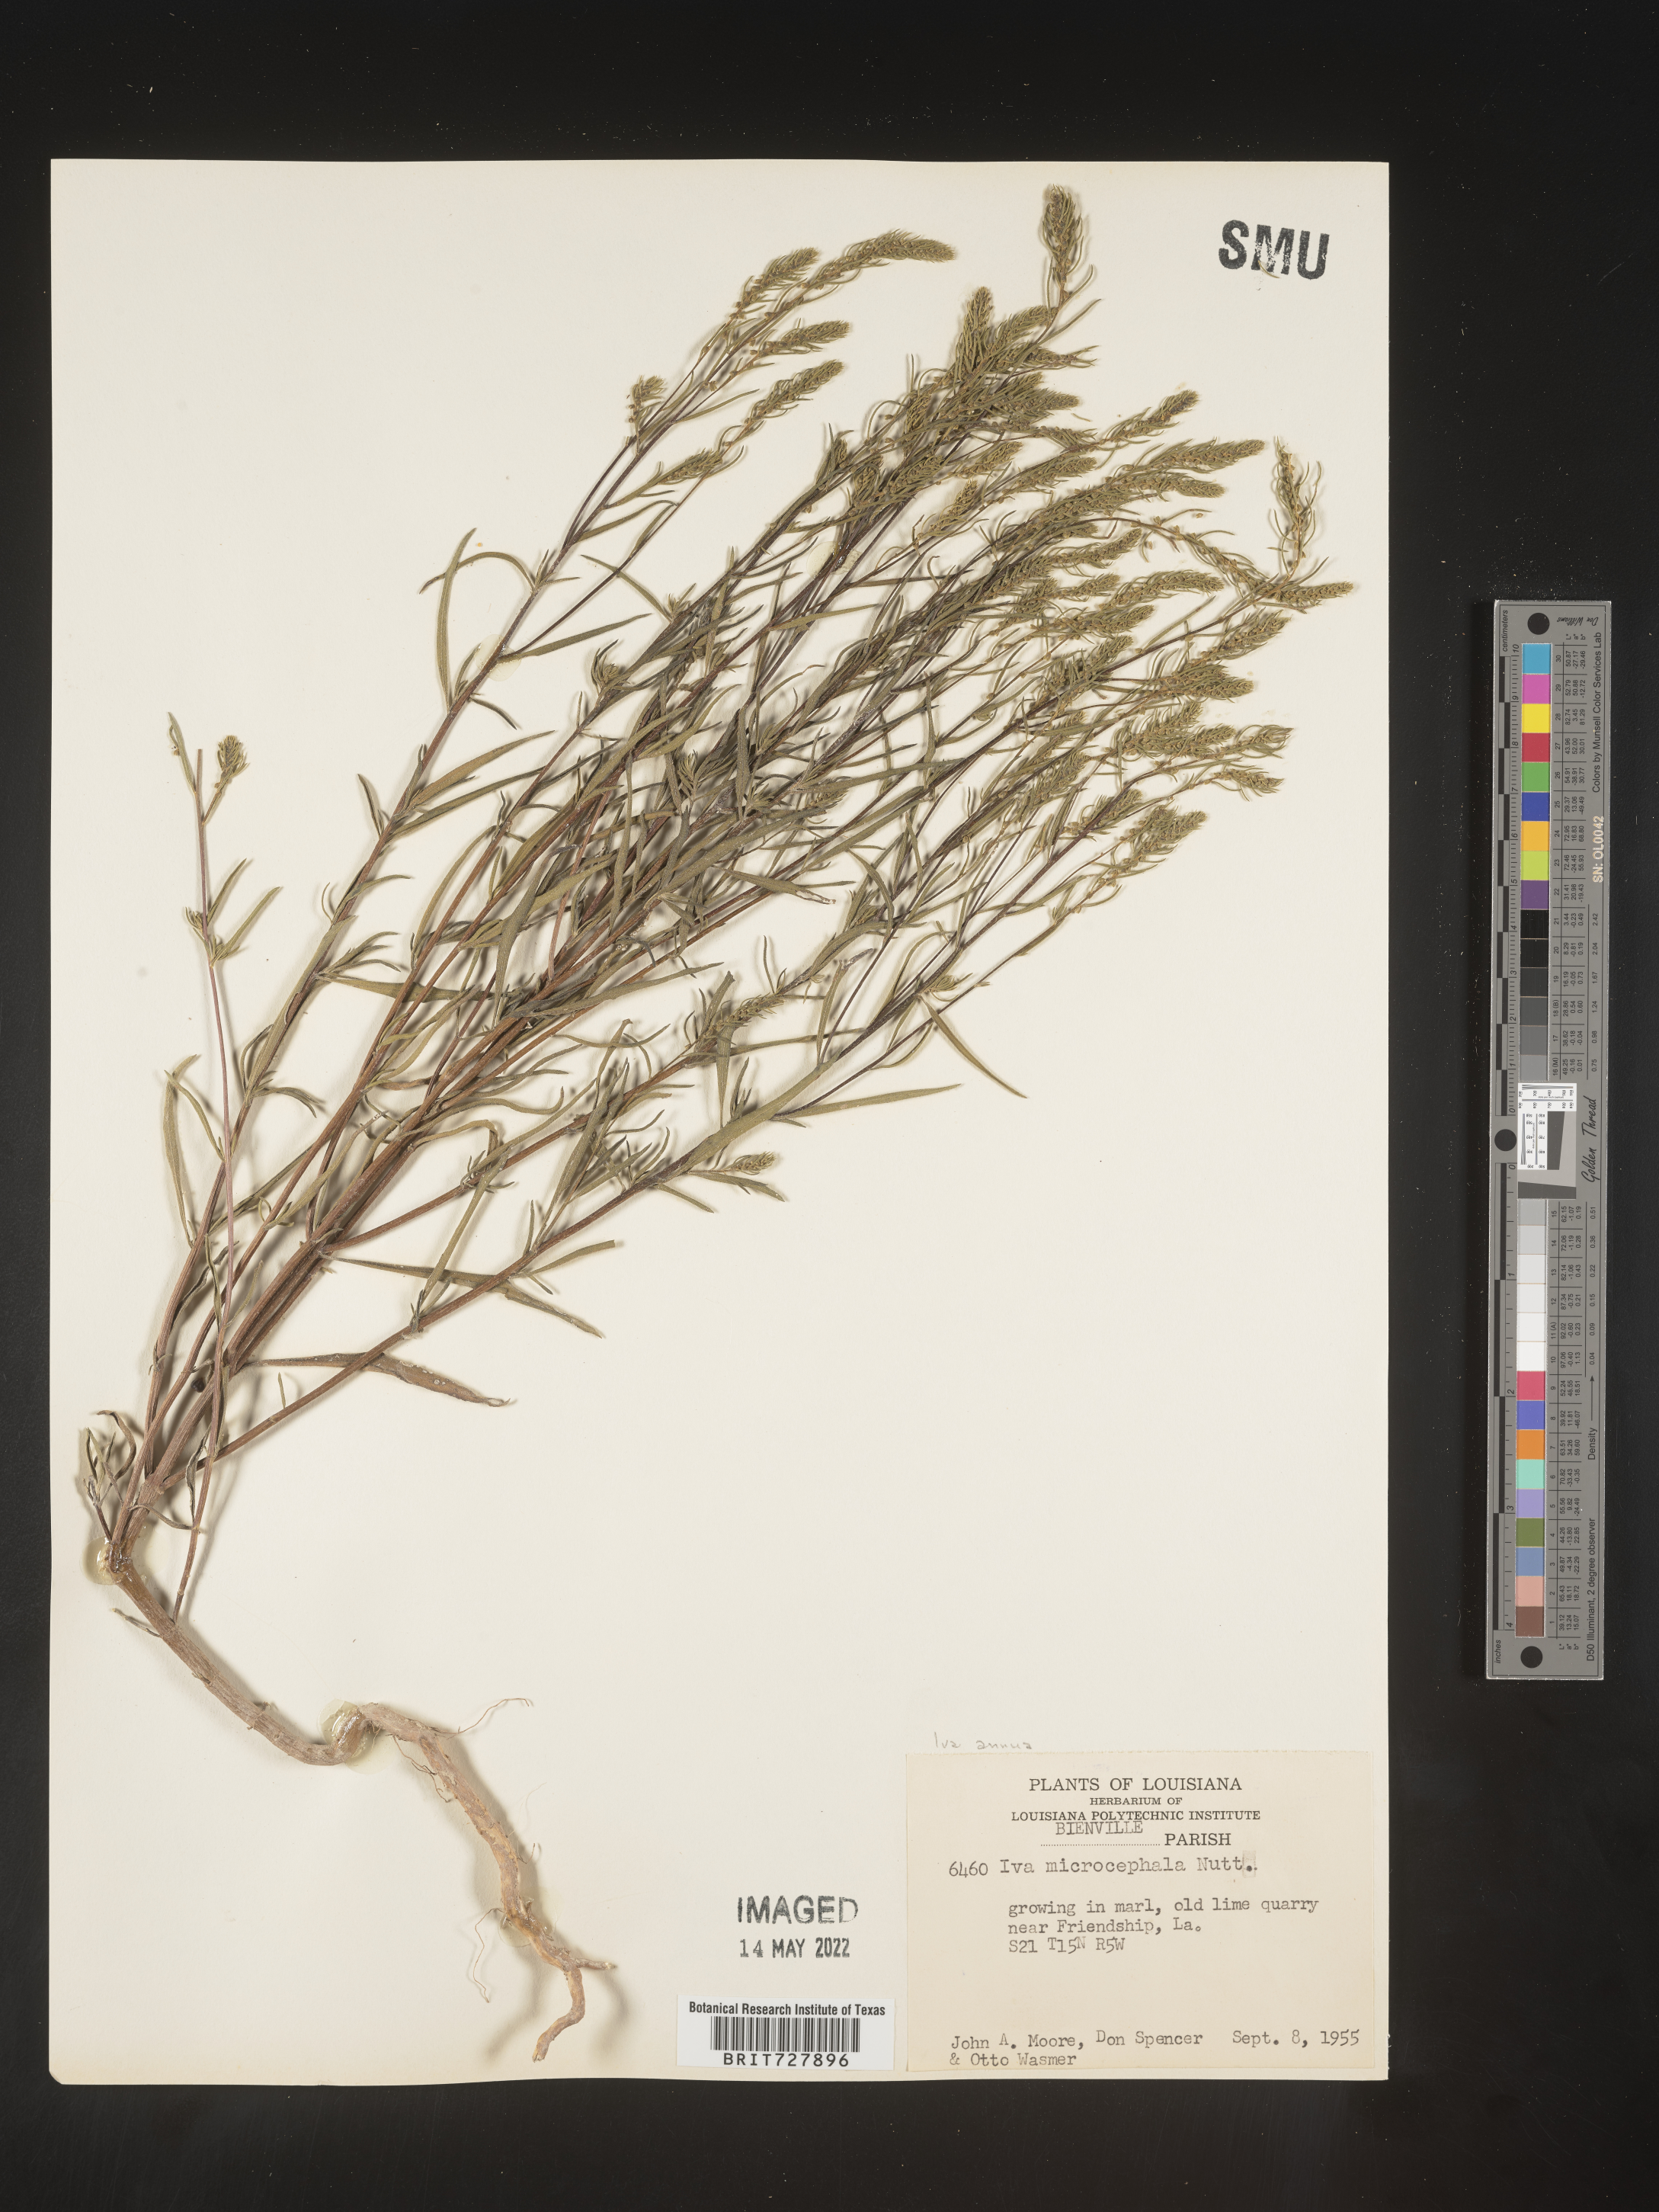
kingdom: Plantae
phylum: Tracheophyta
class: Magnoliopsida
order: Asterales
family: Asteraceae
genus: Iva
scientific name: Iva annua
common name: Marsh-elder
